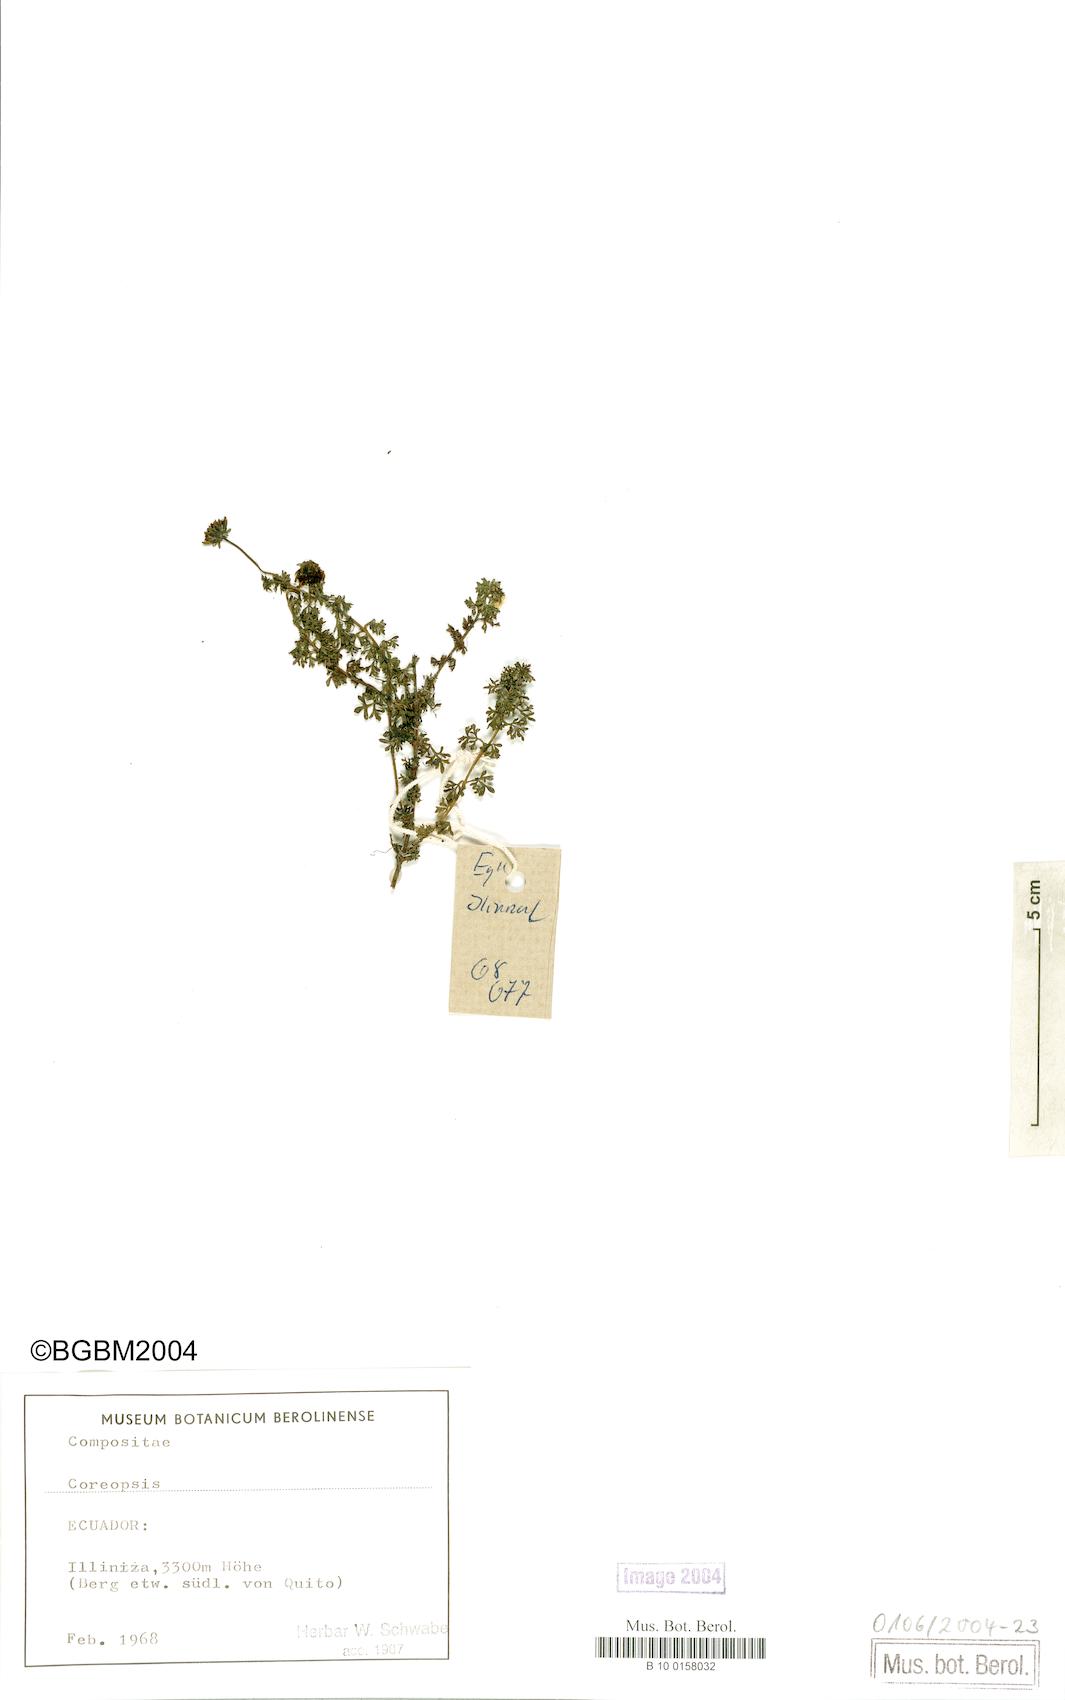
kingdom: Plantae
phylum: Tracheophyta
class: Magnoliopsida
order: Asterales
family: Asteraceae
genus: Coreopsis
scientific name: Coreopsis
